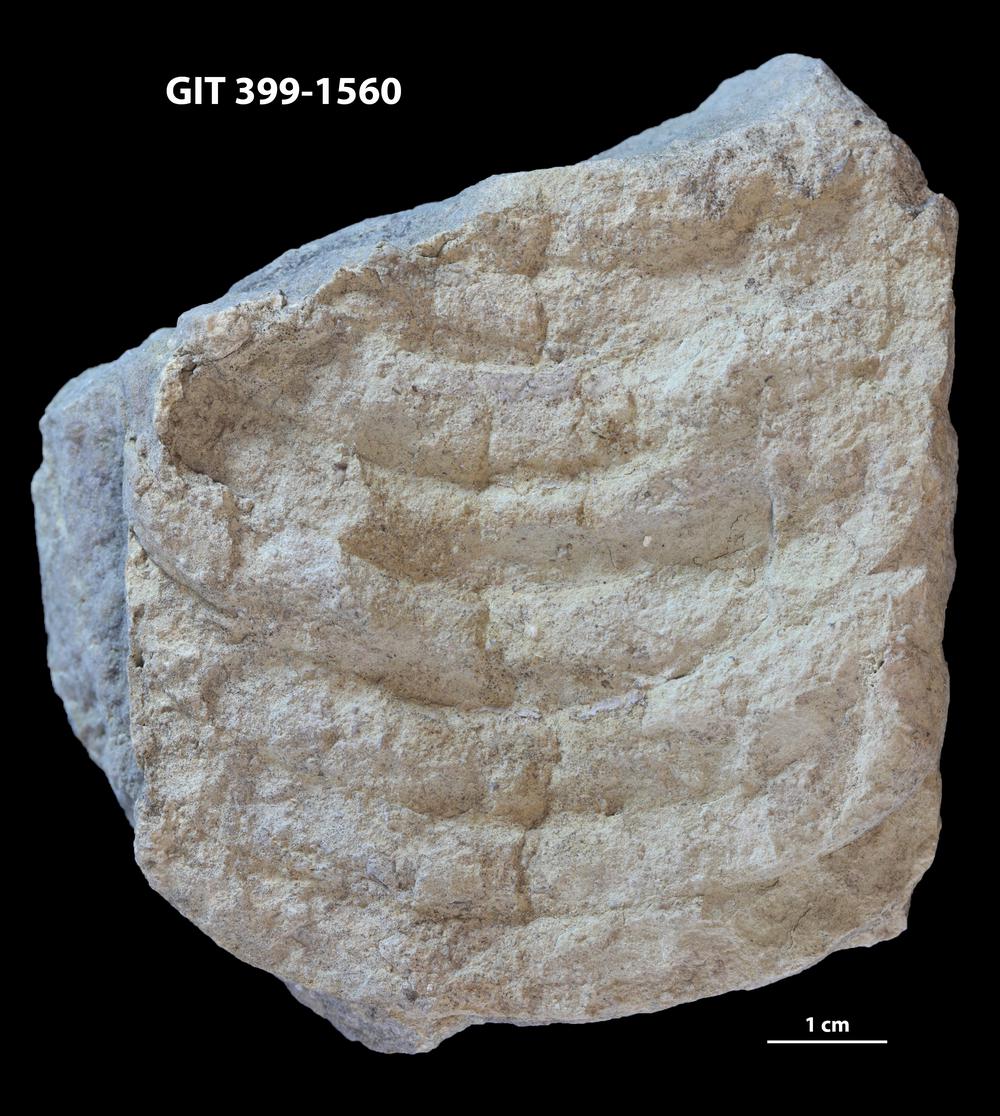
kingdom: Animalia
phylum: Mollusca
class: Cephalopoda
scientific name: Cephalopoda
